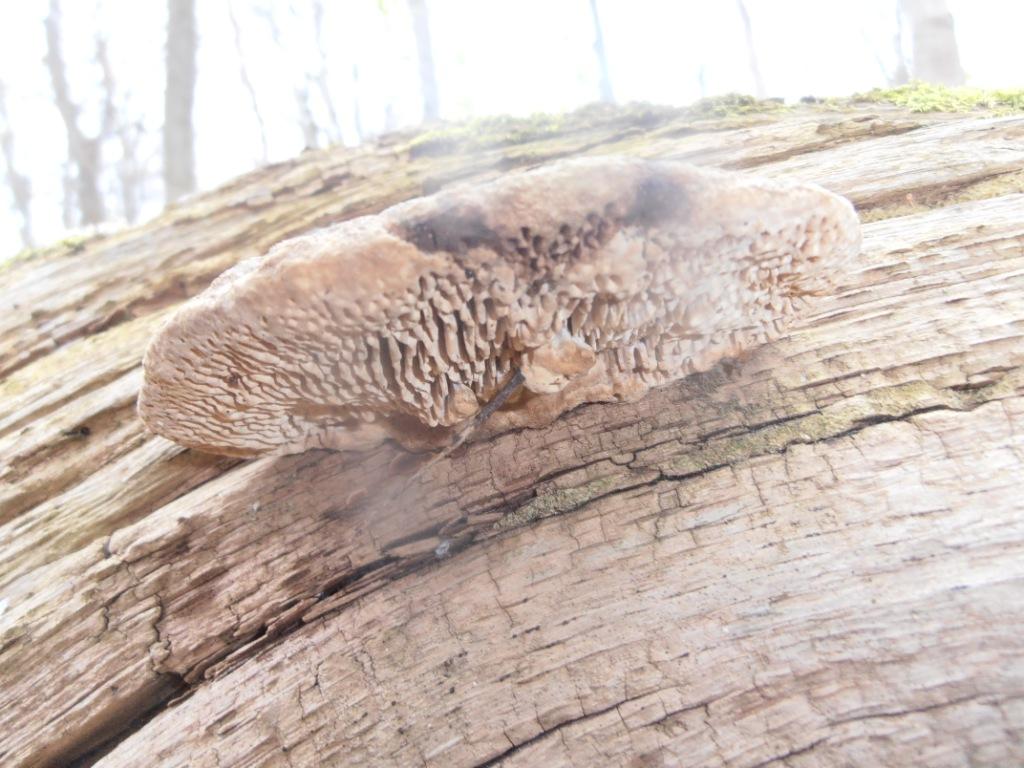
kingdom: Fungi
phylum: Basidiomycota
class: Agaricomycetes
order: Polyporales
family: Fomitopsidaceae
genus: Daedalea
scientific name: Daedalea quercina
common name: ege-labyrintsvamp
